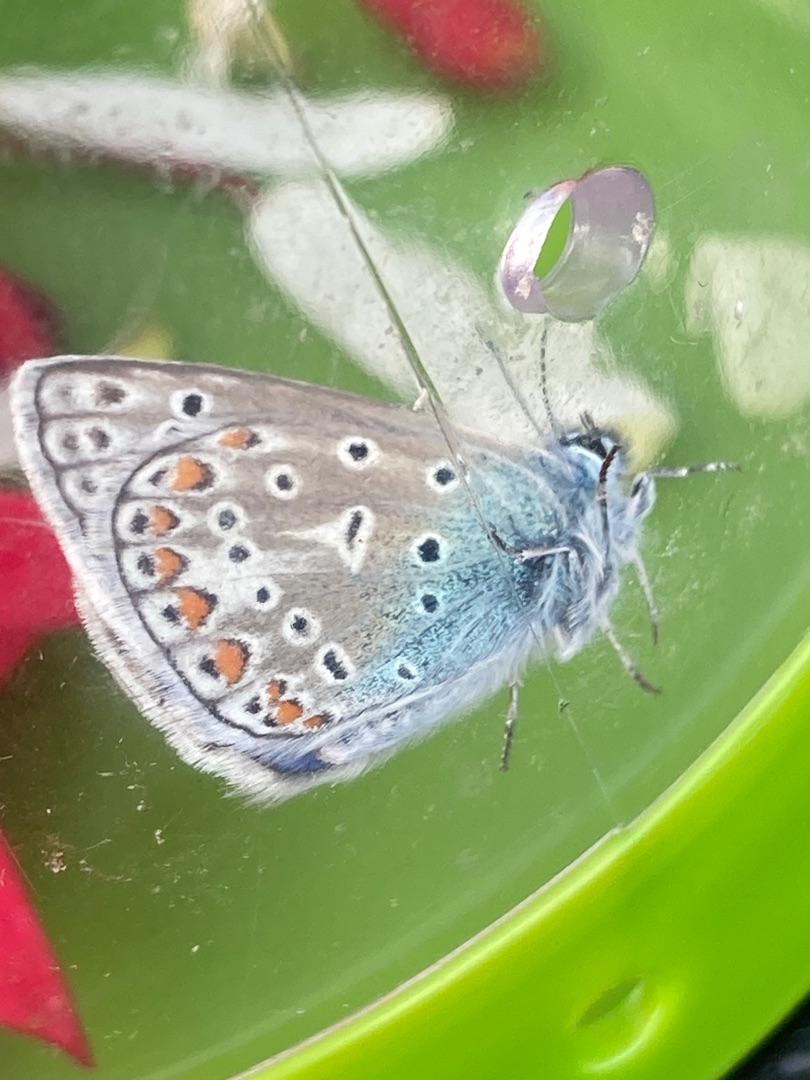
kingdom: Animalia
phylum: Arthropoda
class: Insecta
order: Lepidoptera
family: Lycaenidae
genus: Polyommatus
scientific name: Polyommatus icarus
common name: Almindelig blåfugl
